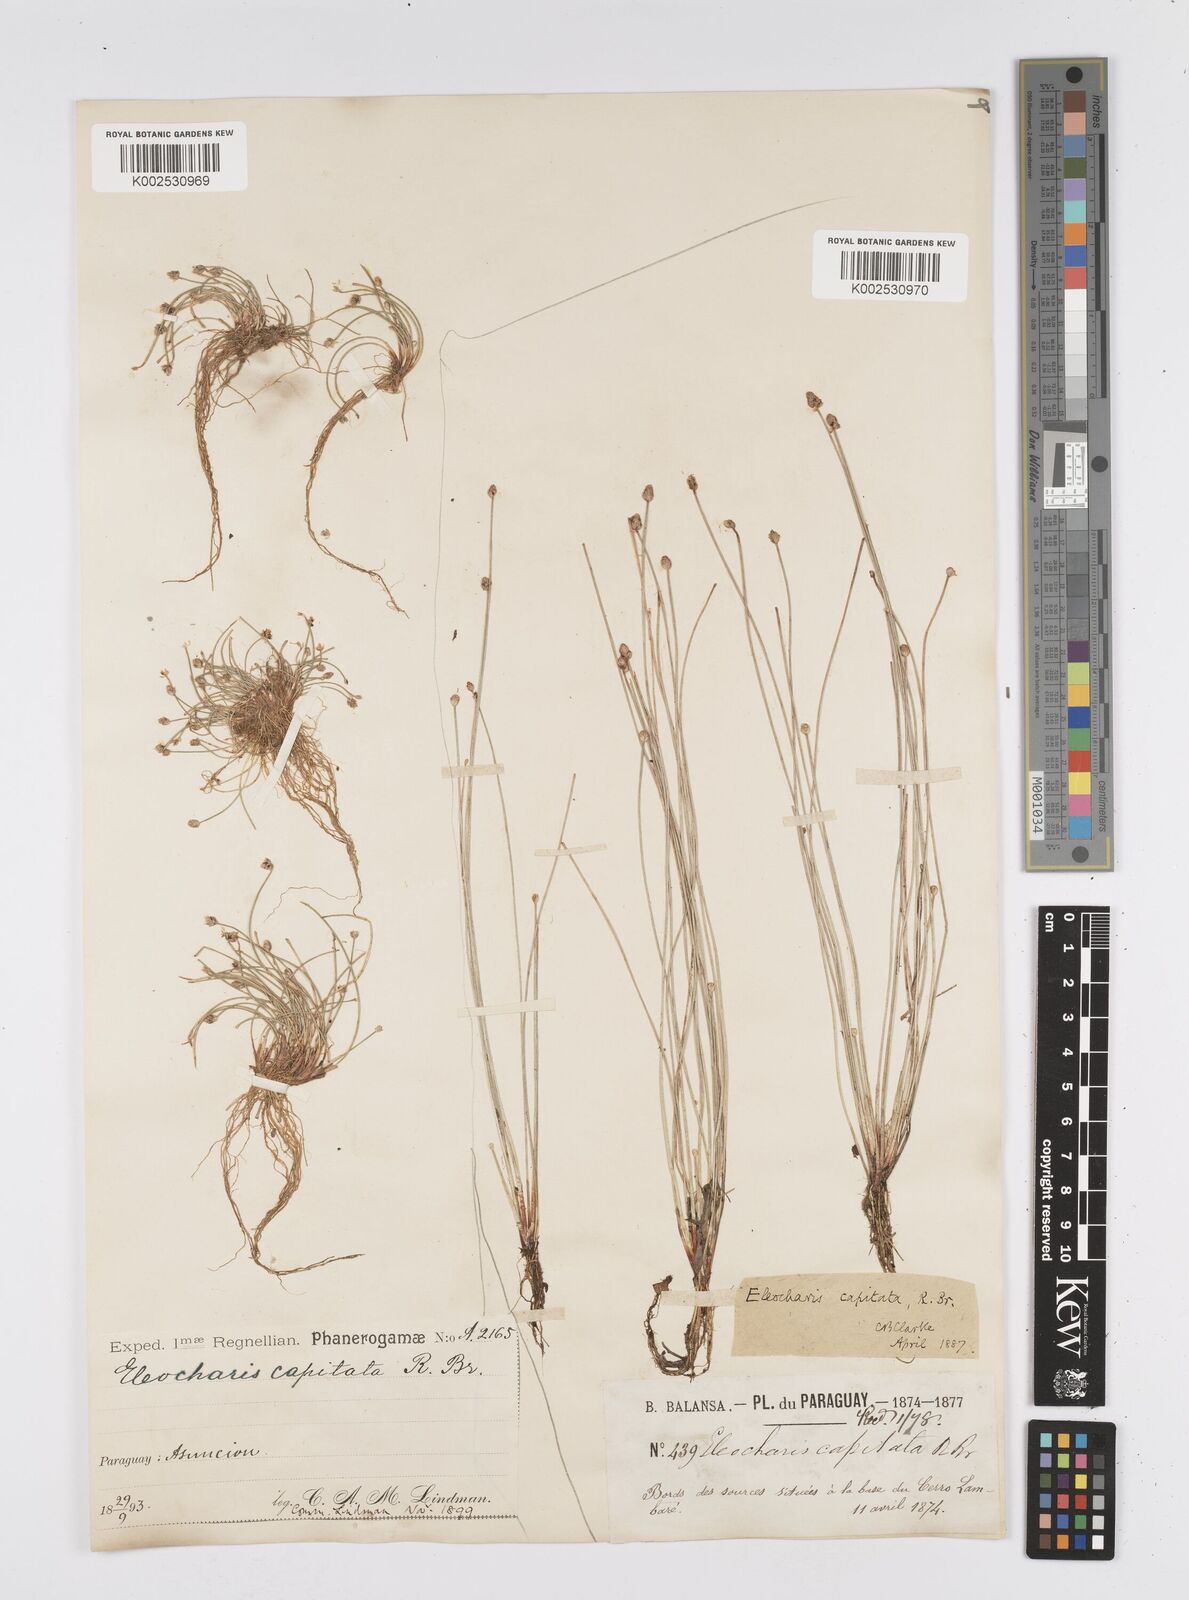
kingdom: Plantae
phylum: Tracheophyta
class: Liliopsida
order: Poales
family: Cyperaceae
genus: Eleocharis
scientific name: Eleocharis geniculata
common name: Canada spikesedge
